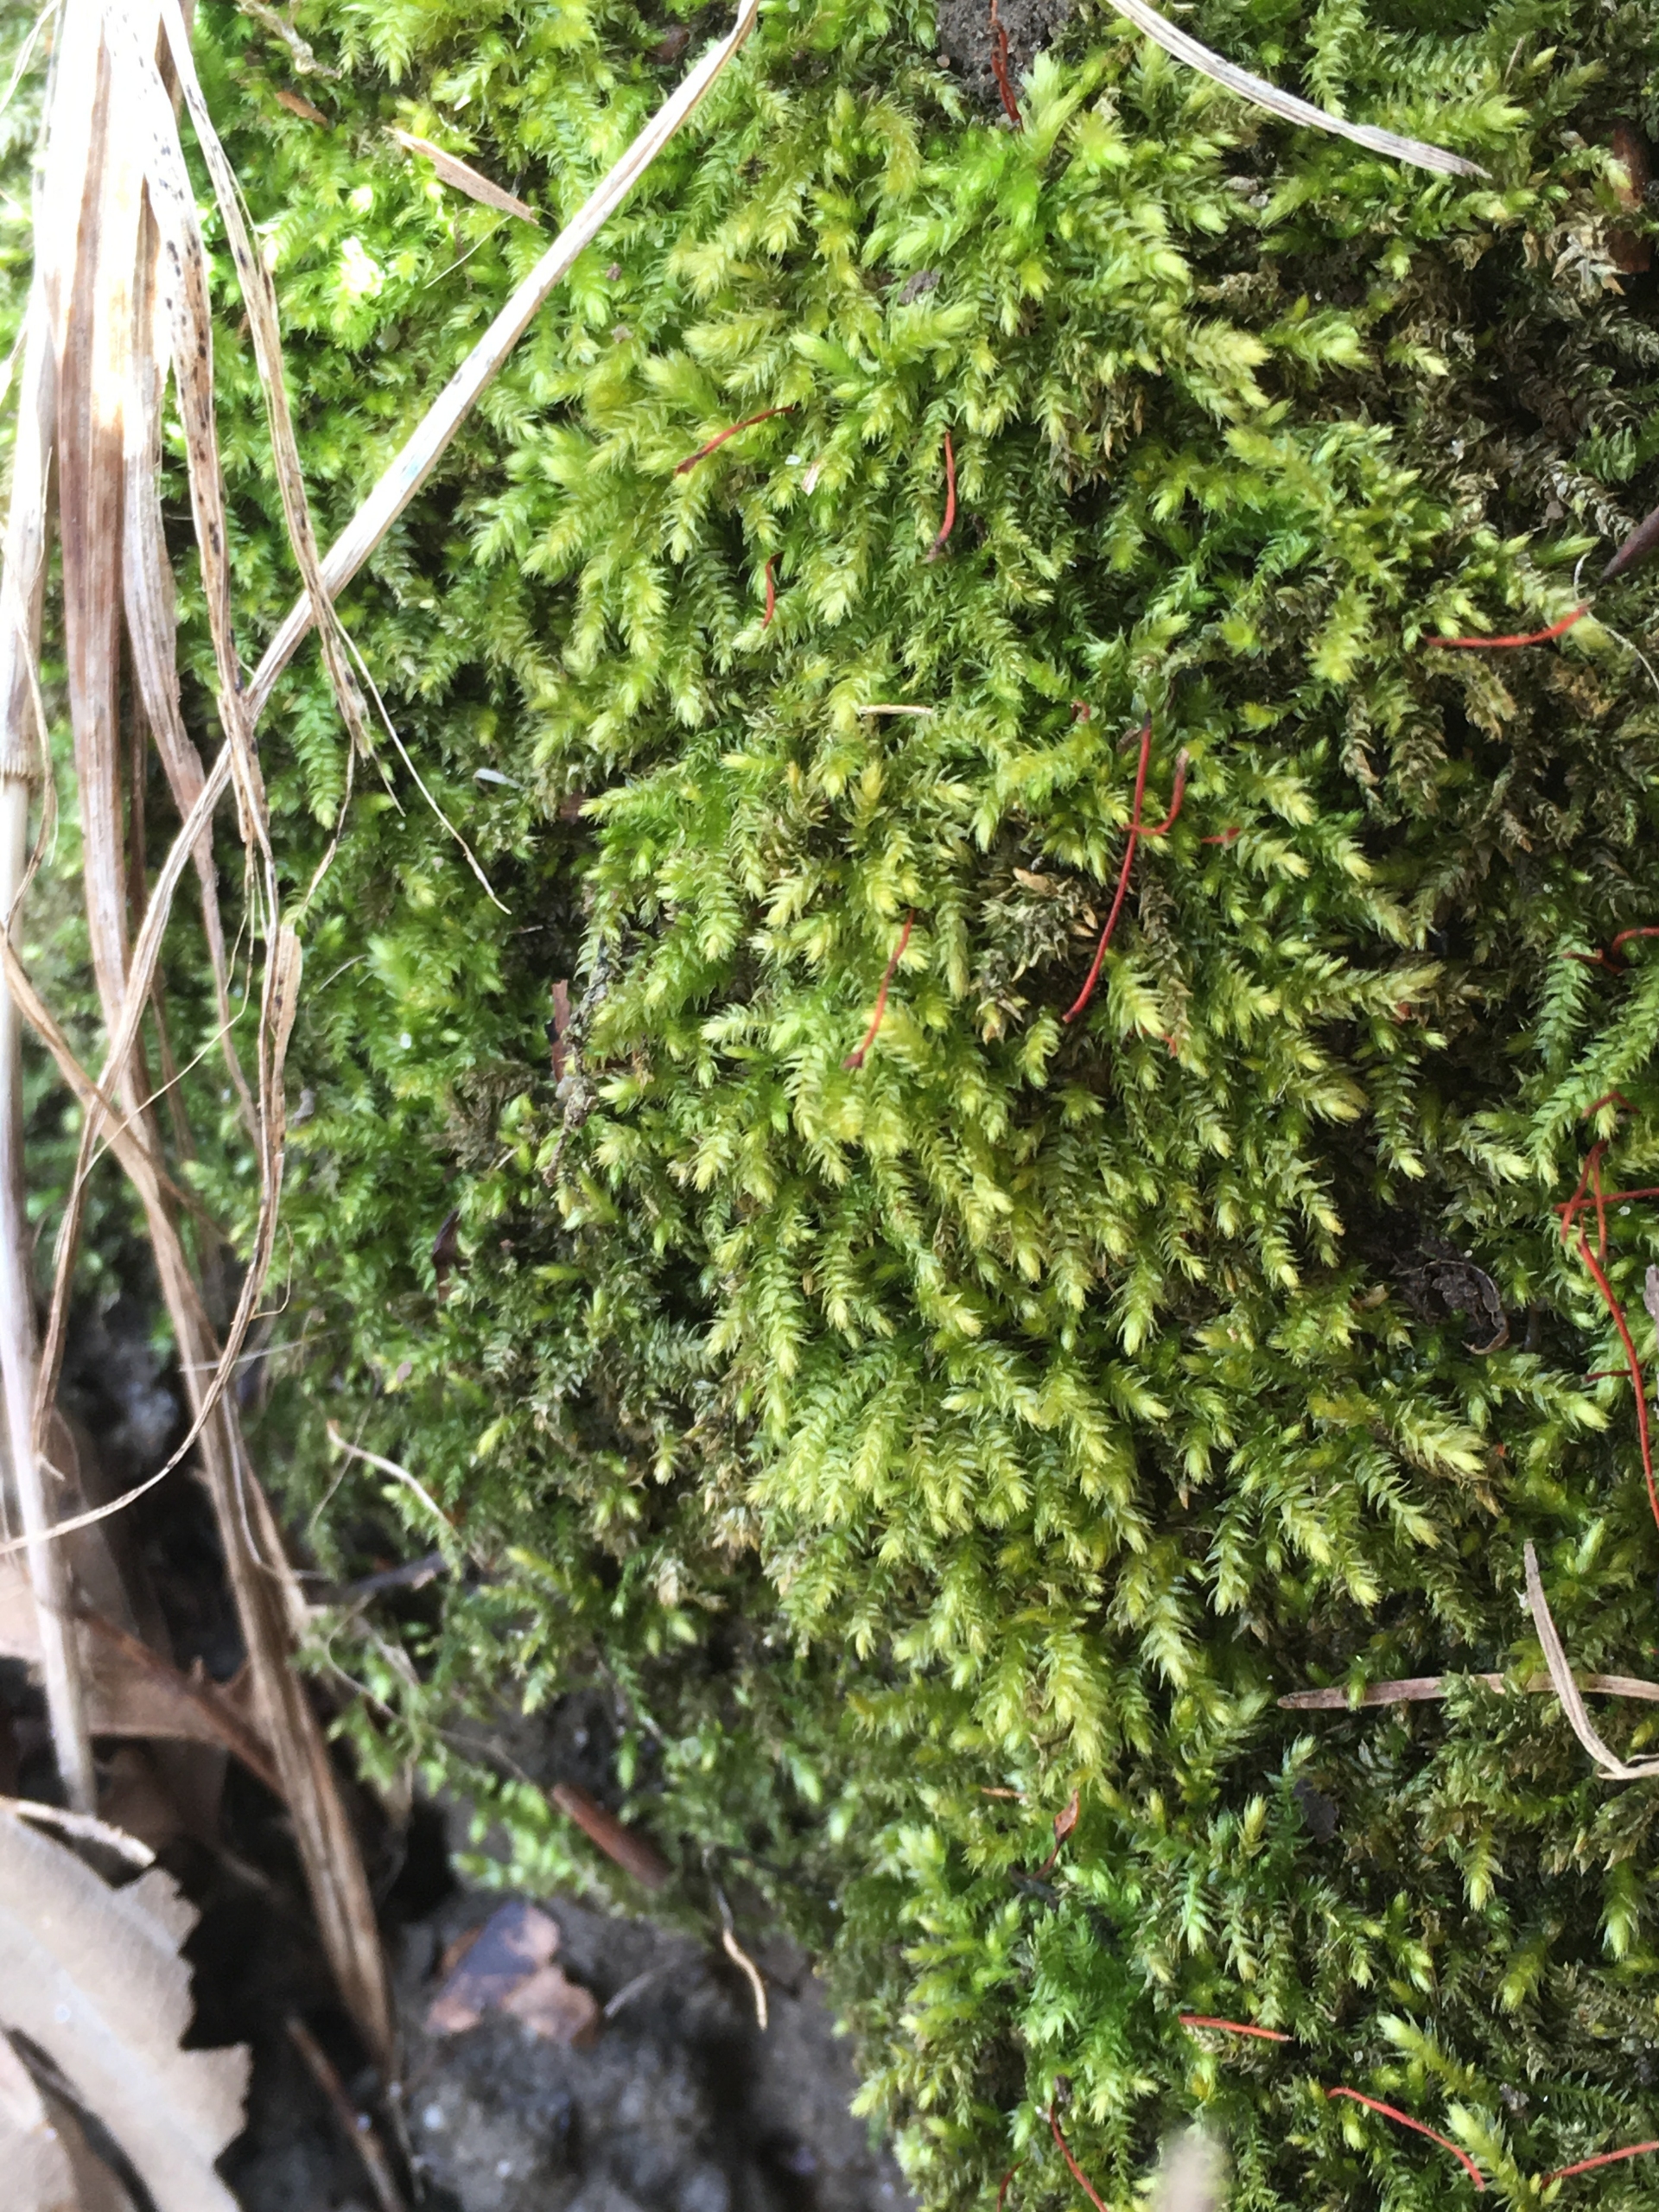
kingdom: Plantae
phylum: Bryophyta
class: Bryopsida
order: Hypnales
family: Brachytheciaceae
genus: Oxyrrhynchium
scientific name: Oxyrrhynchium schleicheri
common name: Vredet vortetand
